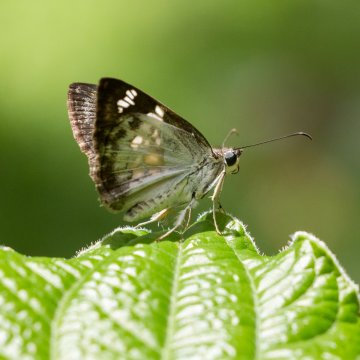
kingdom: Animalia
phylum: Arthropoda
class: Insecta
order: Lepidoptera
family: Hesperiidae
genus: Xenophanes
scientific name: Xenophanes
